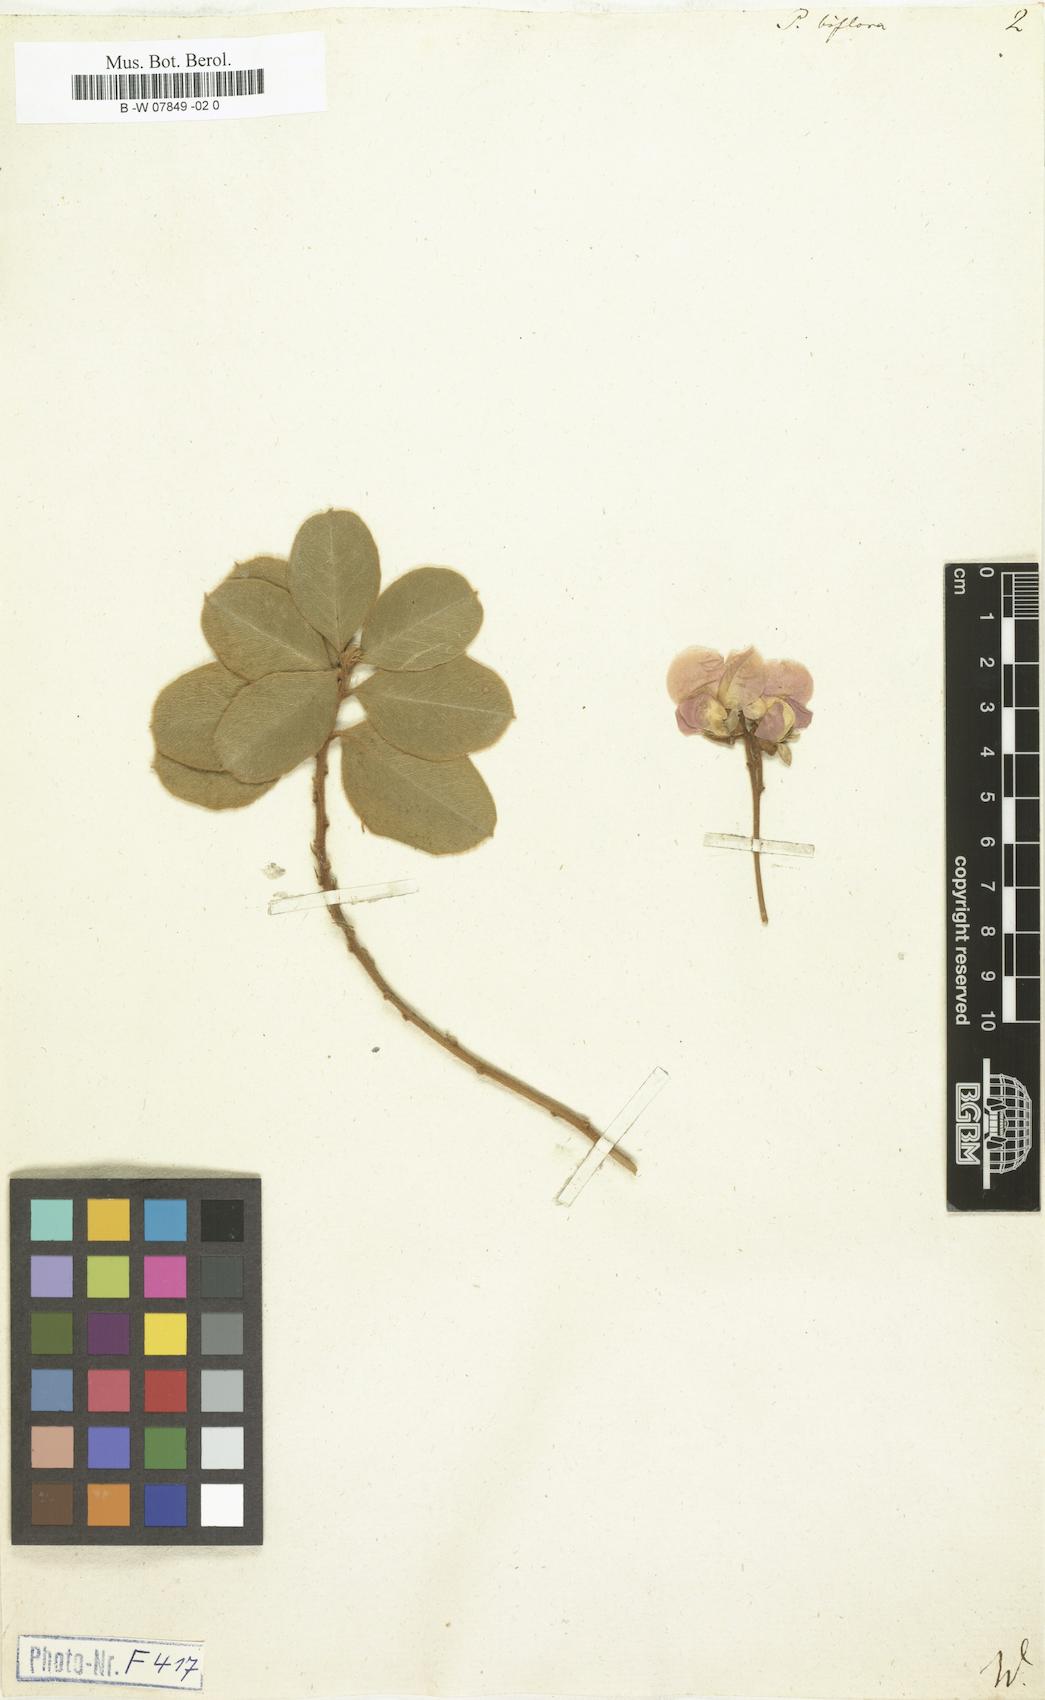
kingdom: Plantae
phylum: Tracheophyta
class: Magnoliopsida
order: Fabales
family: Fabaceae
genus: Podalyria
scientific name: Podalyria biflora
